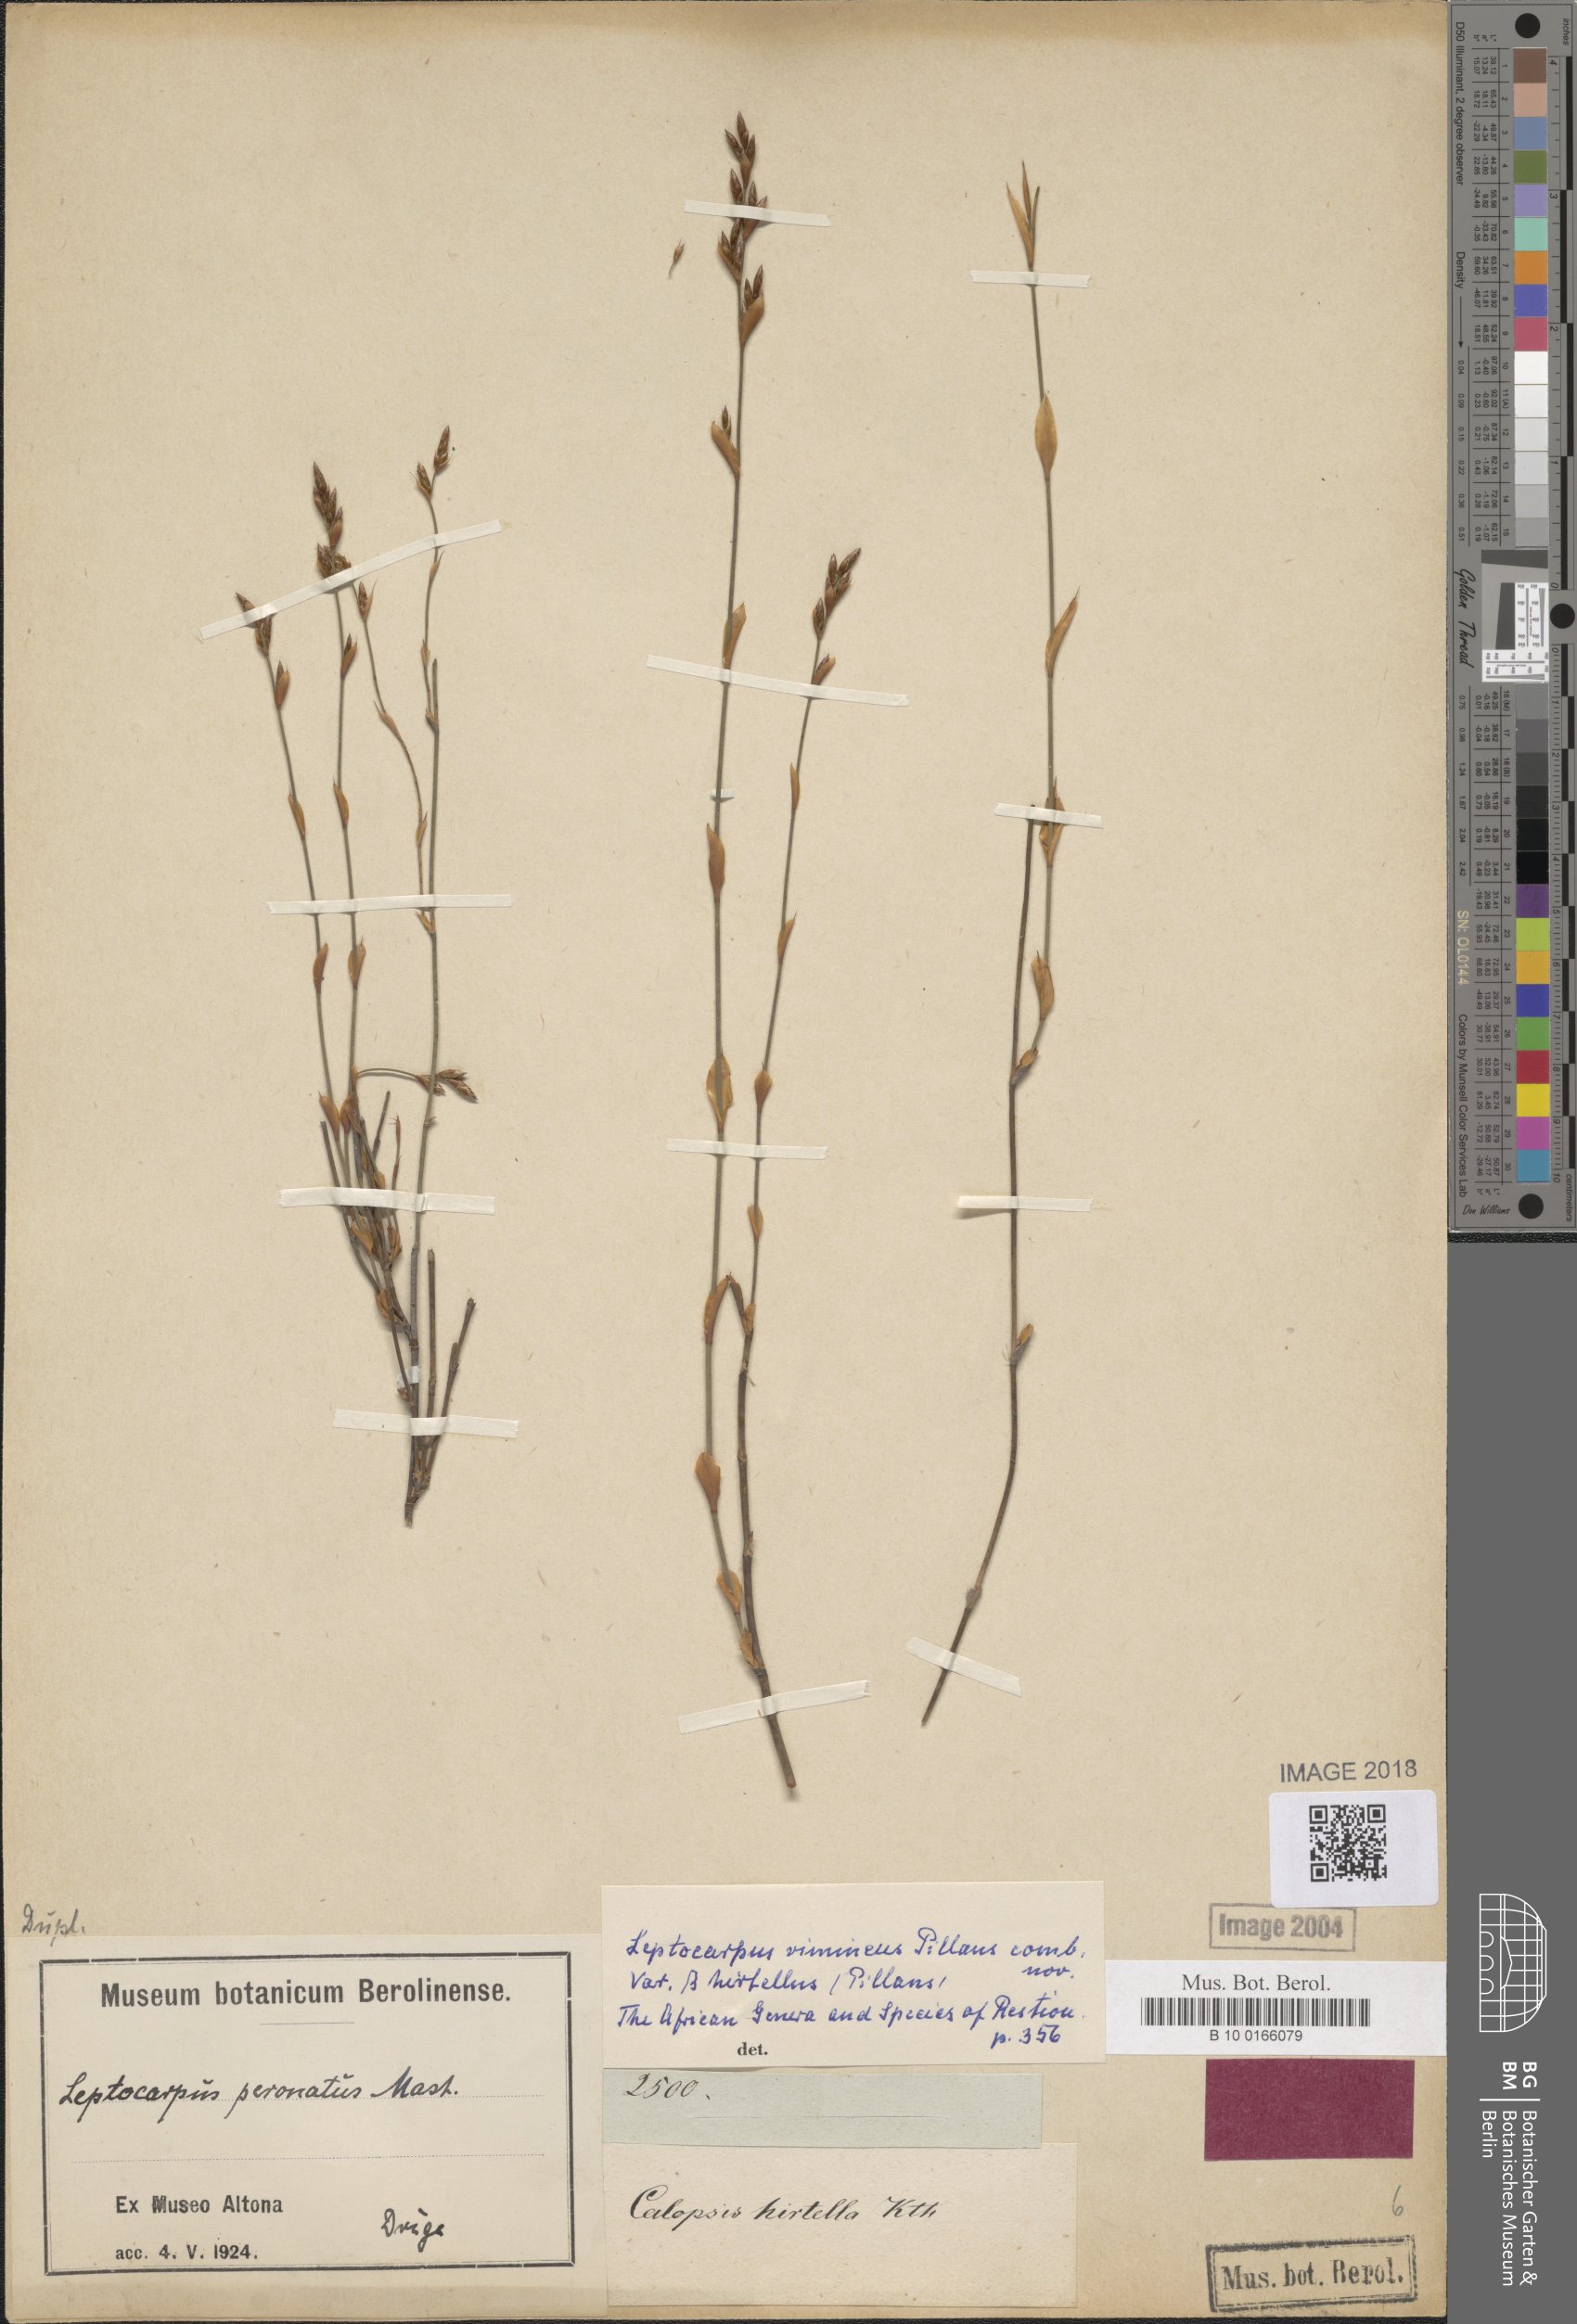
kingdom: Plantae
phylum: Tracheophyta
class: Liliopsida
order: Poales
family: Restionaceae
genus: Restio
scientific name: Restio vimineus
